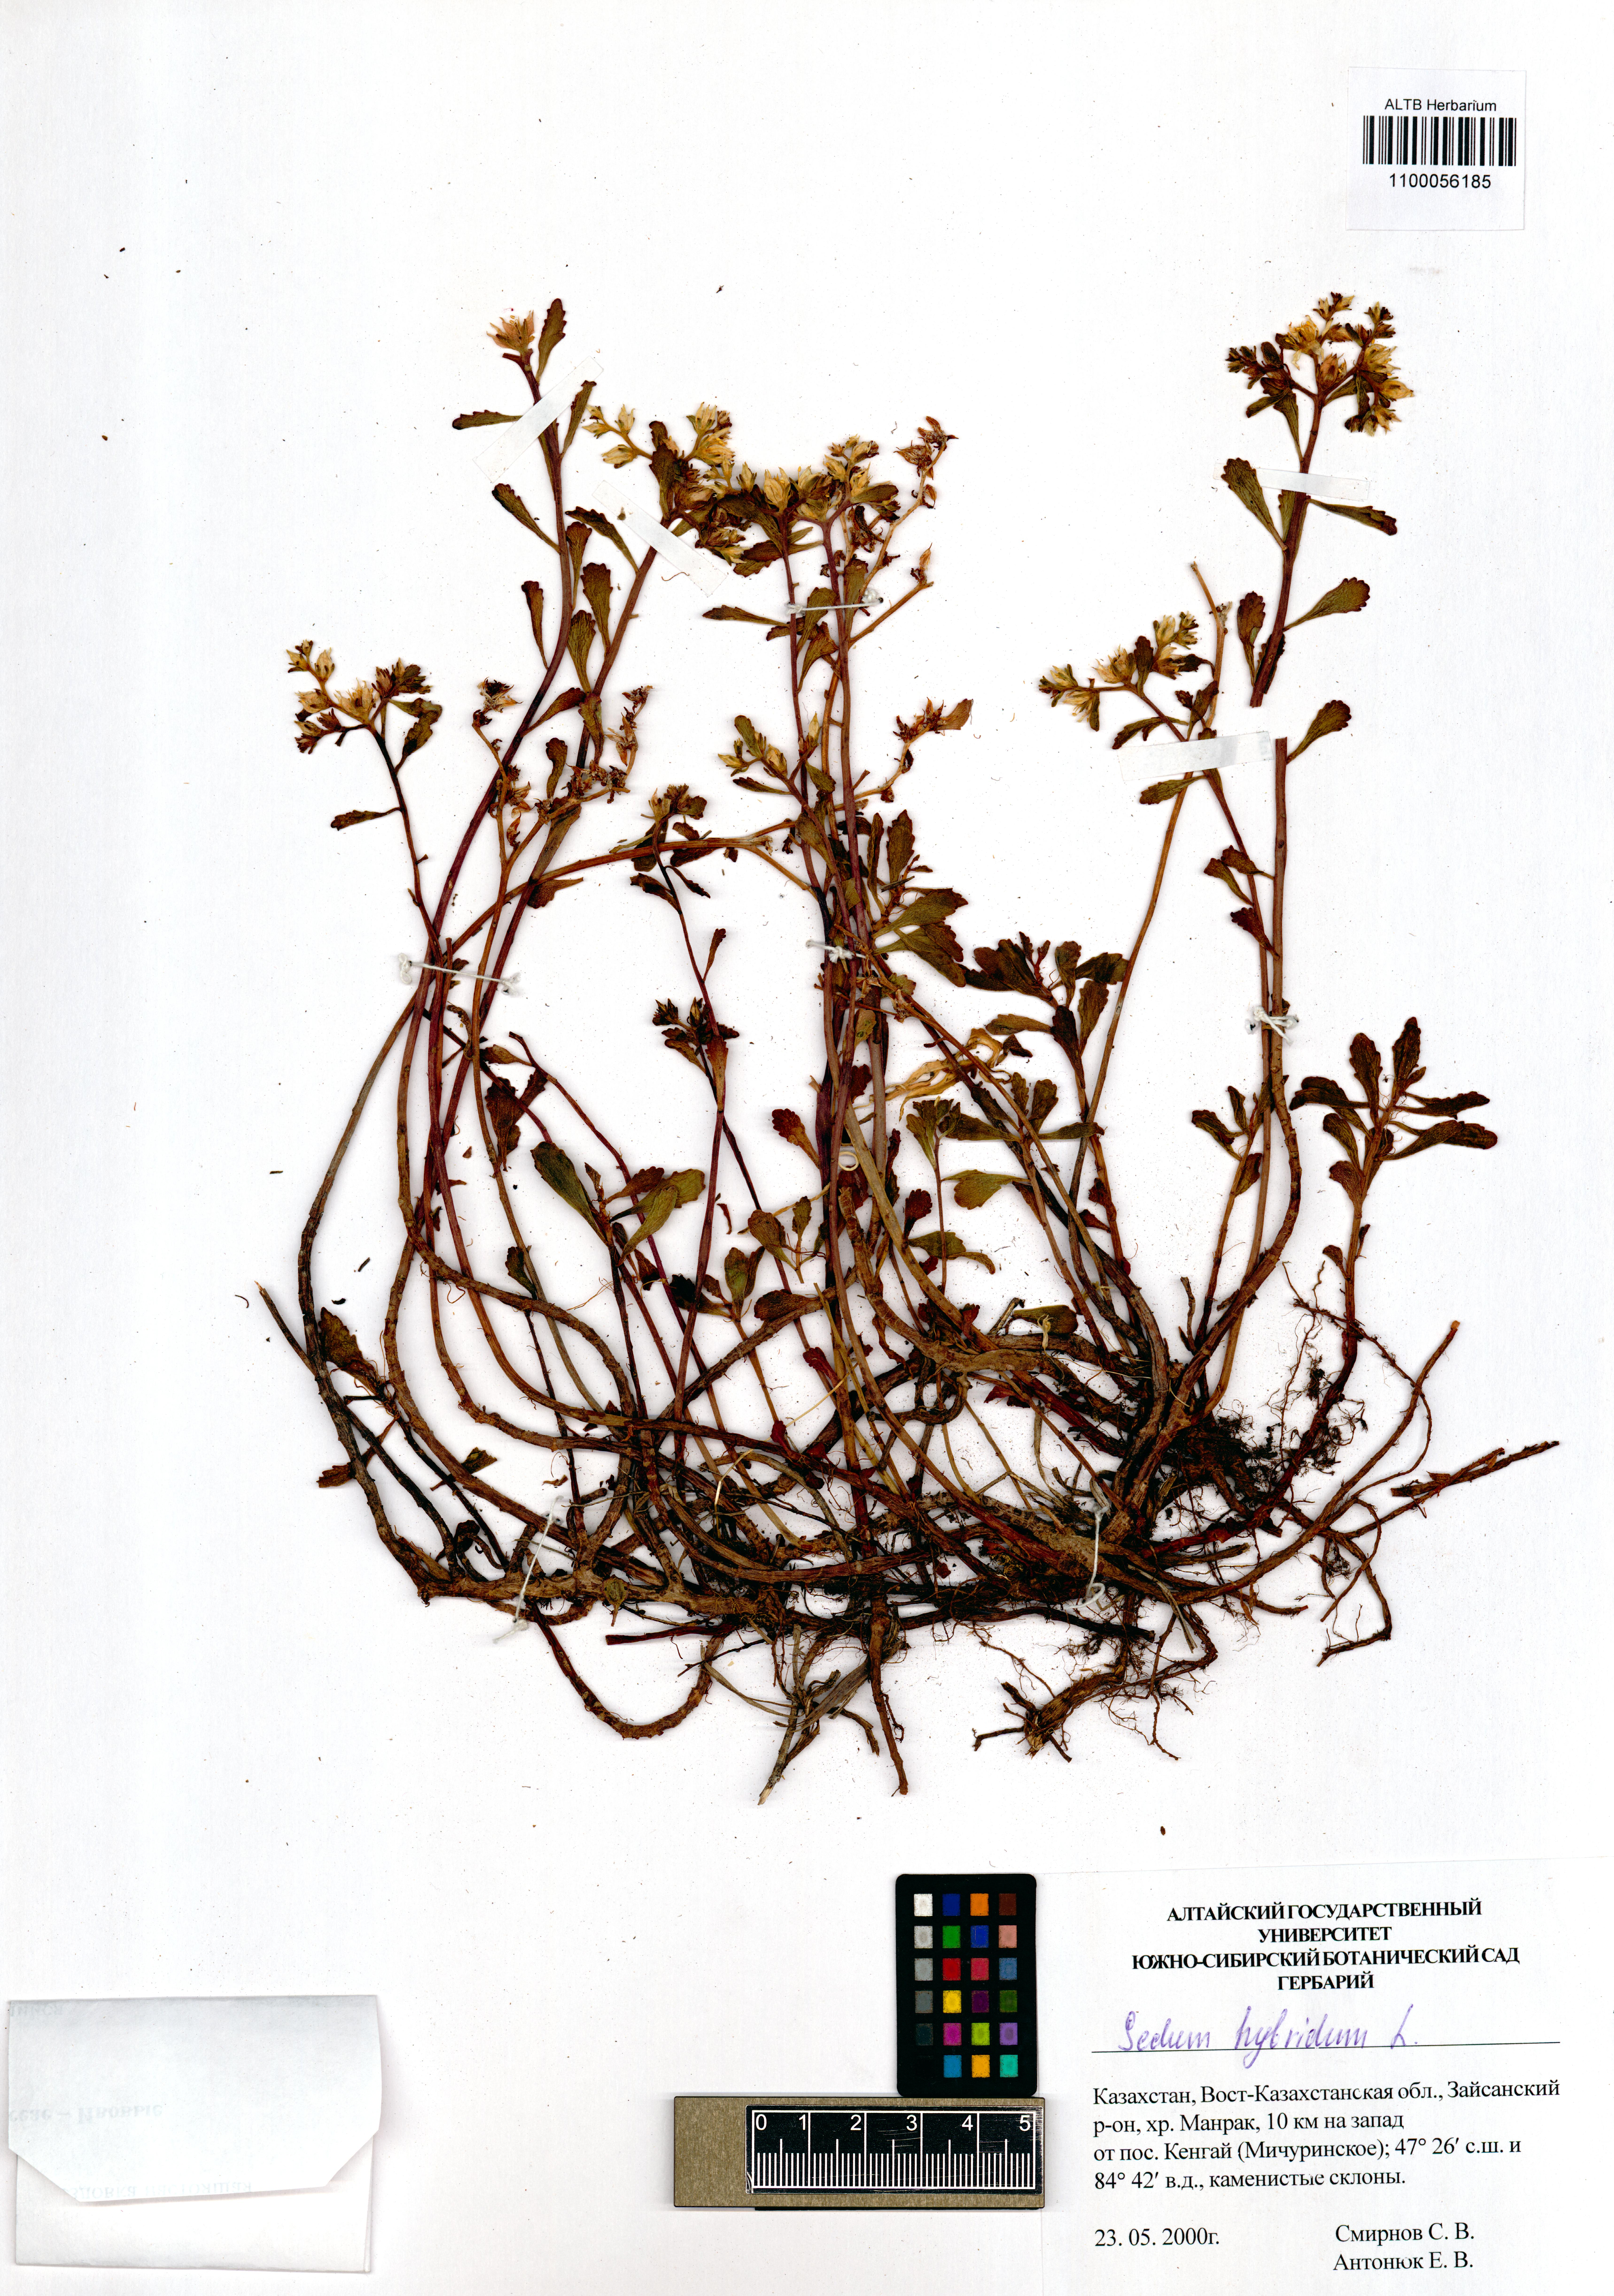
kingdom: Plantae
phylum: Tracheophyta
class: Magnoliopsida
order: Saxifragales
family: Crassulaceae
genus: Phedimus
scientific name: Phedimus hybridus
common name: Hybrid stonecrop
